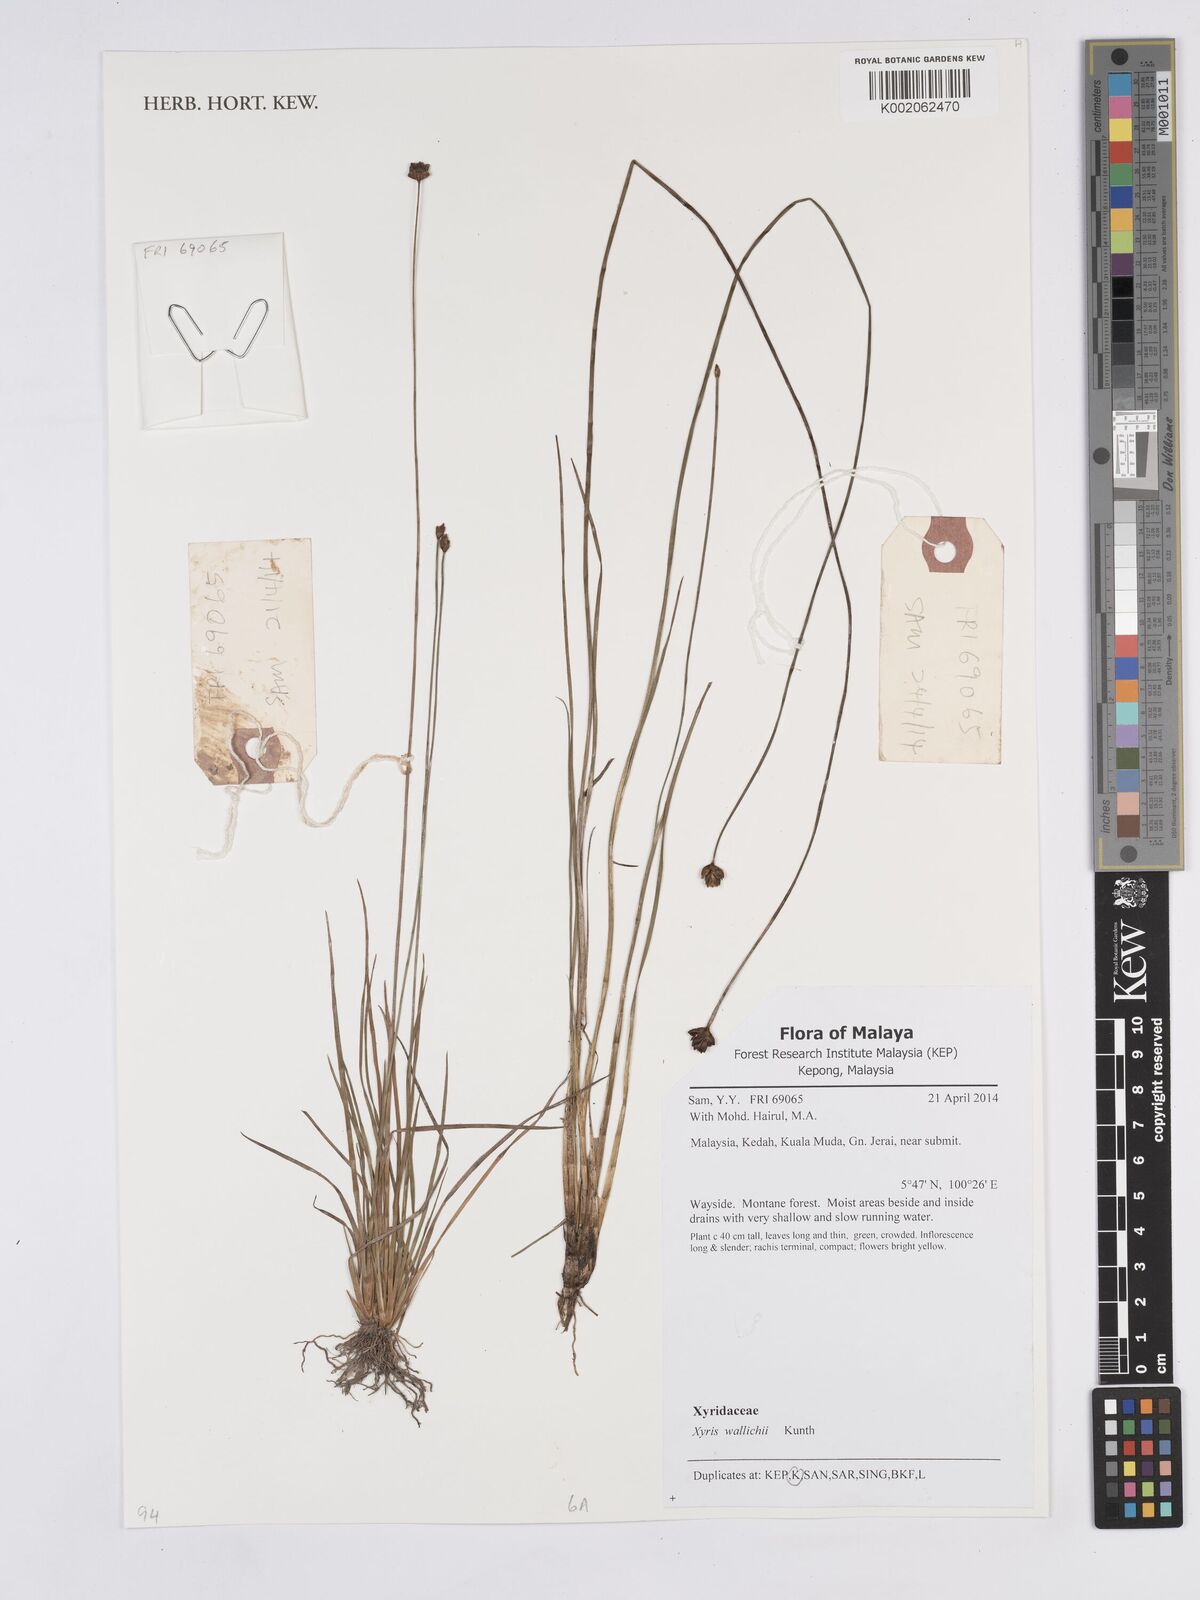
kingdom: Plantae
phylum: Tracheophyta
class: Liliopsida
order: Poales
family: Xyridaceae
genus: Xyris
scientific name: Xyris wallichii
